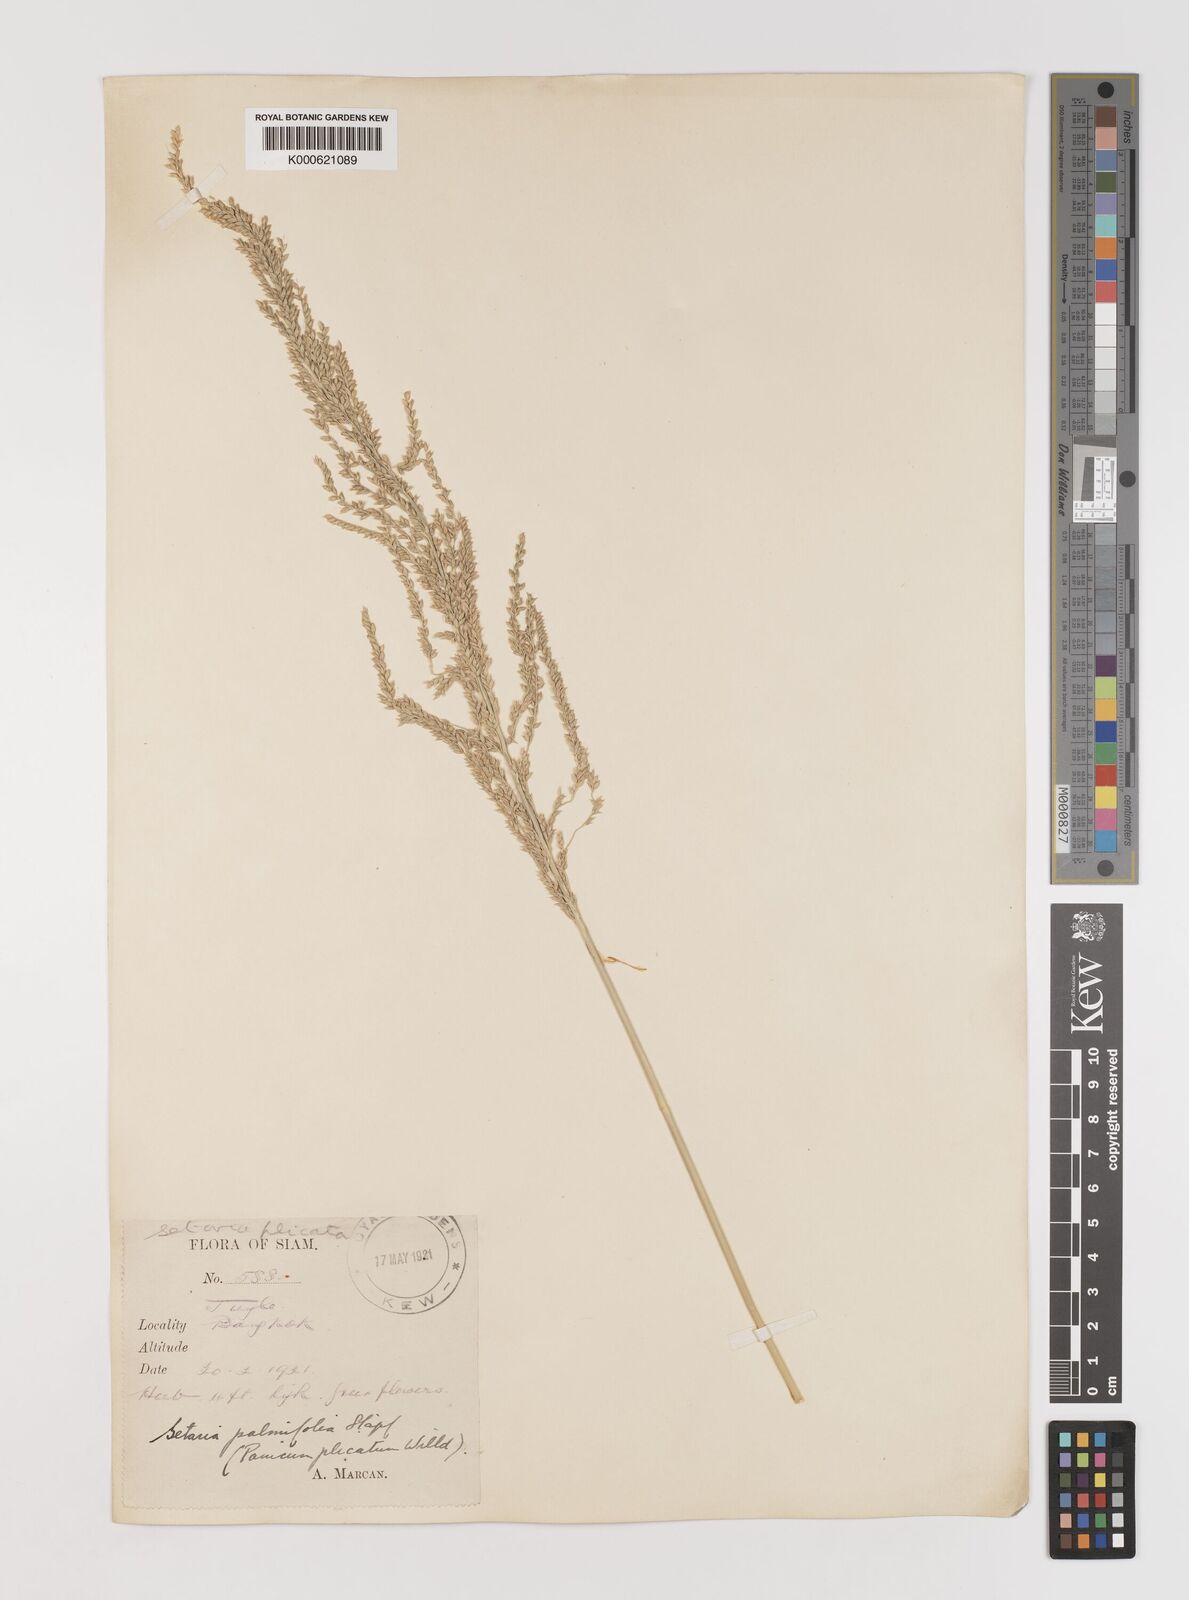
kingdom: Plantae
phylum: Tracheophyta
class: Liliopsida
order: Poales
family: Poaceae
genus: Setaria
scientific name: Setaria palmifolia
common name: Broadleaved bristlegrass
